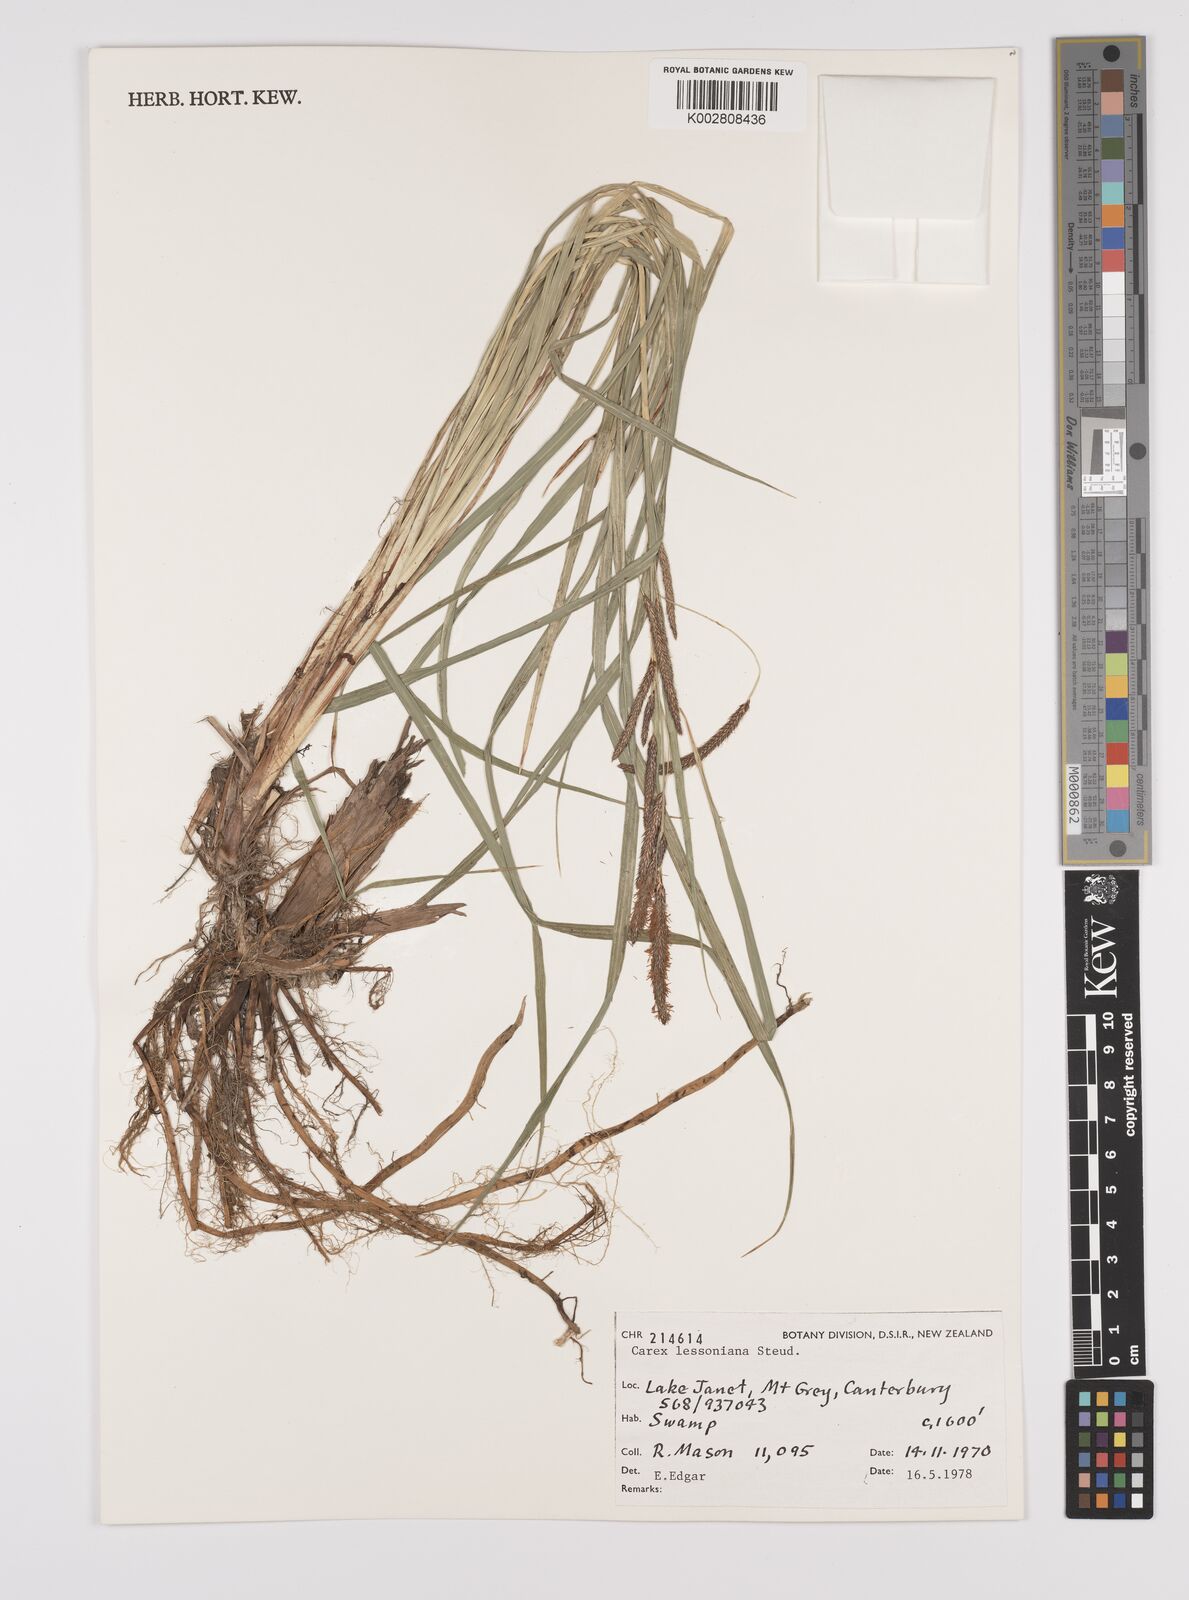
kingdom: Plantae
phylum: Tracheophyta
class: Liliopsida
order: Poales
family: Cyperaceae
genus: Carex
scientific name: Carex lessoniana
